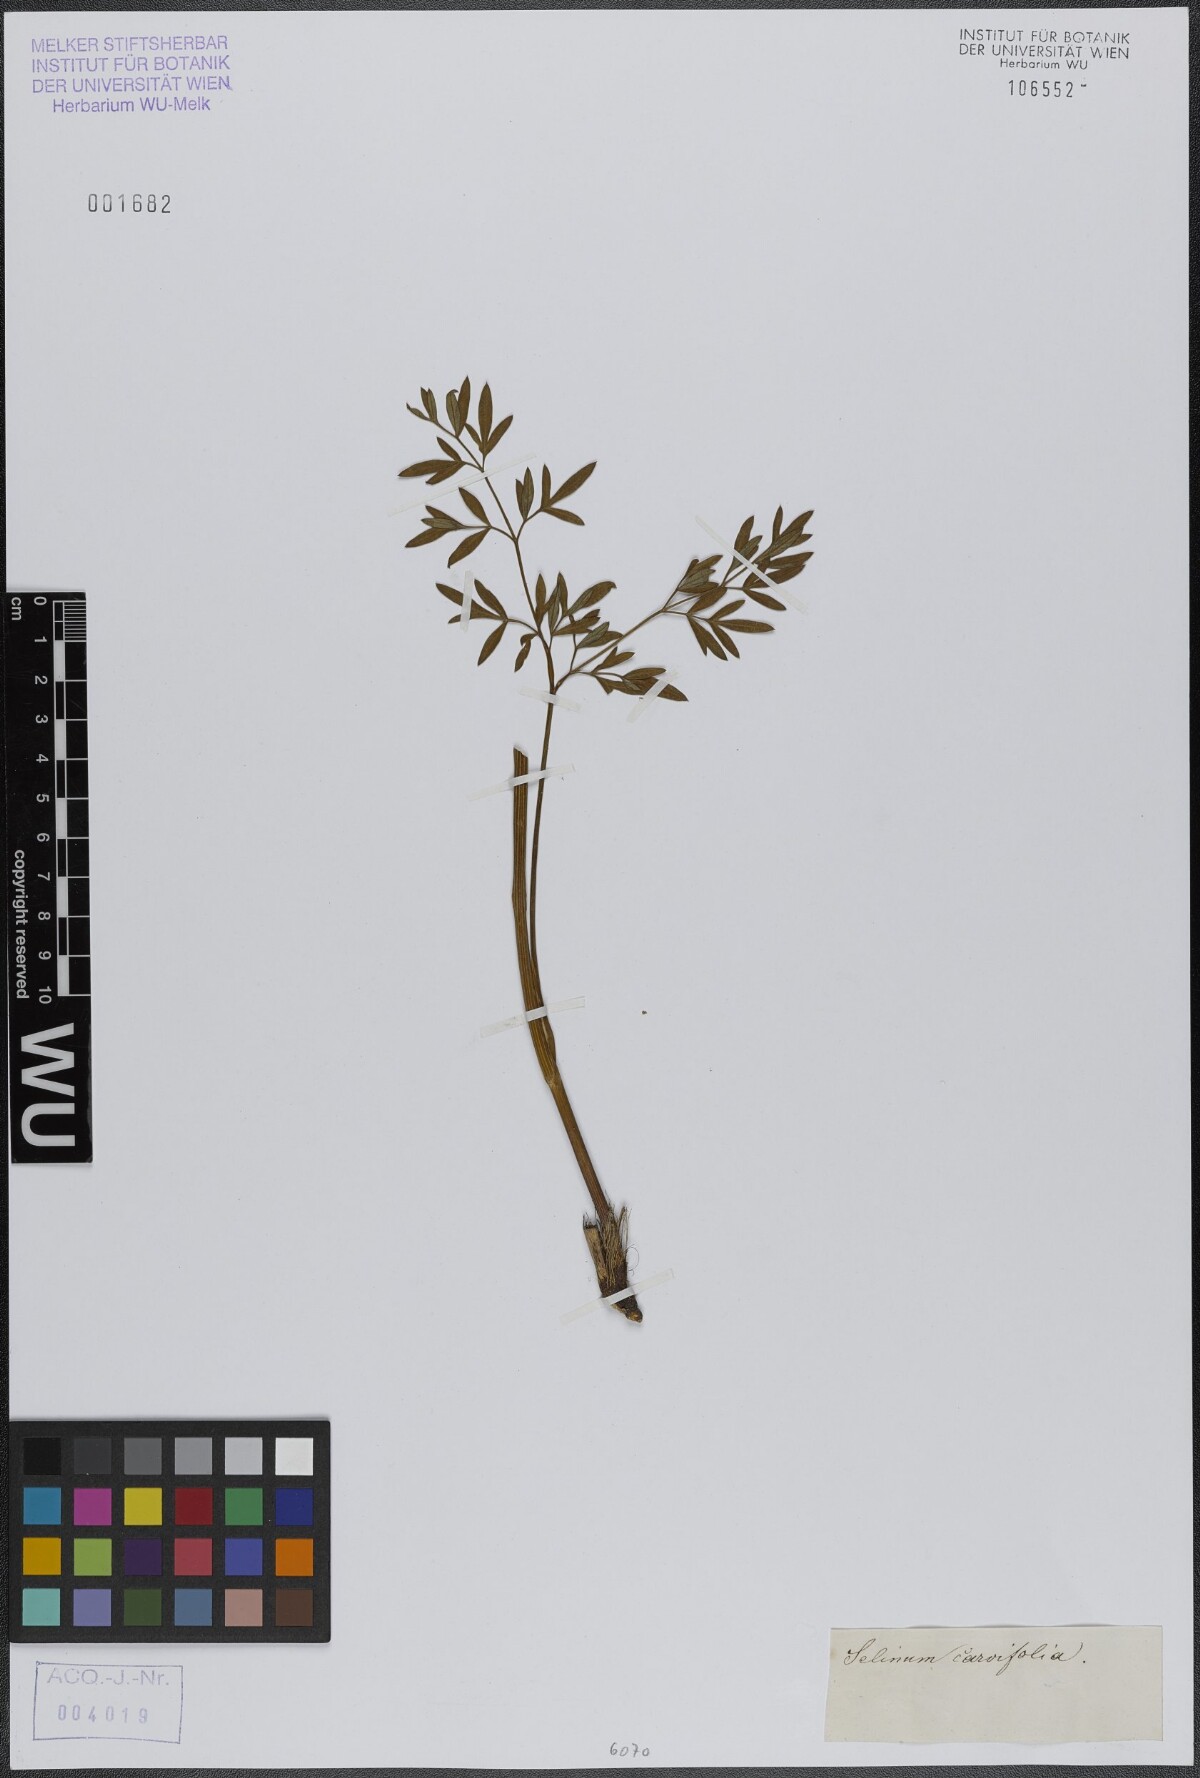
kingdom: Plantae
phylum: Tracheophyta
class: Magnoliopsida
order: Apiales
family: Apiaceae
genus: Selinum
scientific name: Selinum carvifolia
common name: Cambridge milk-parsley
